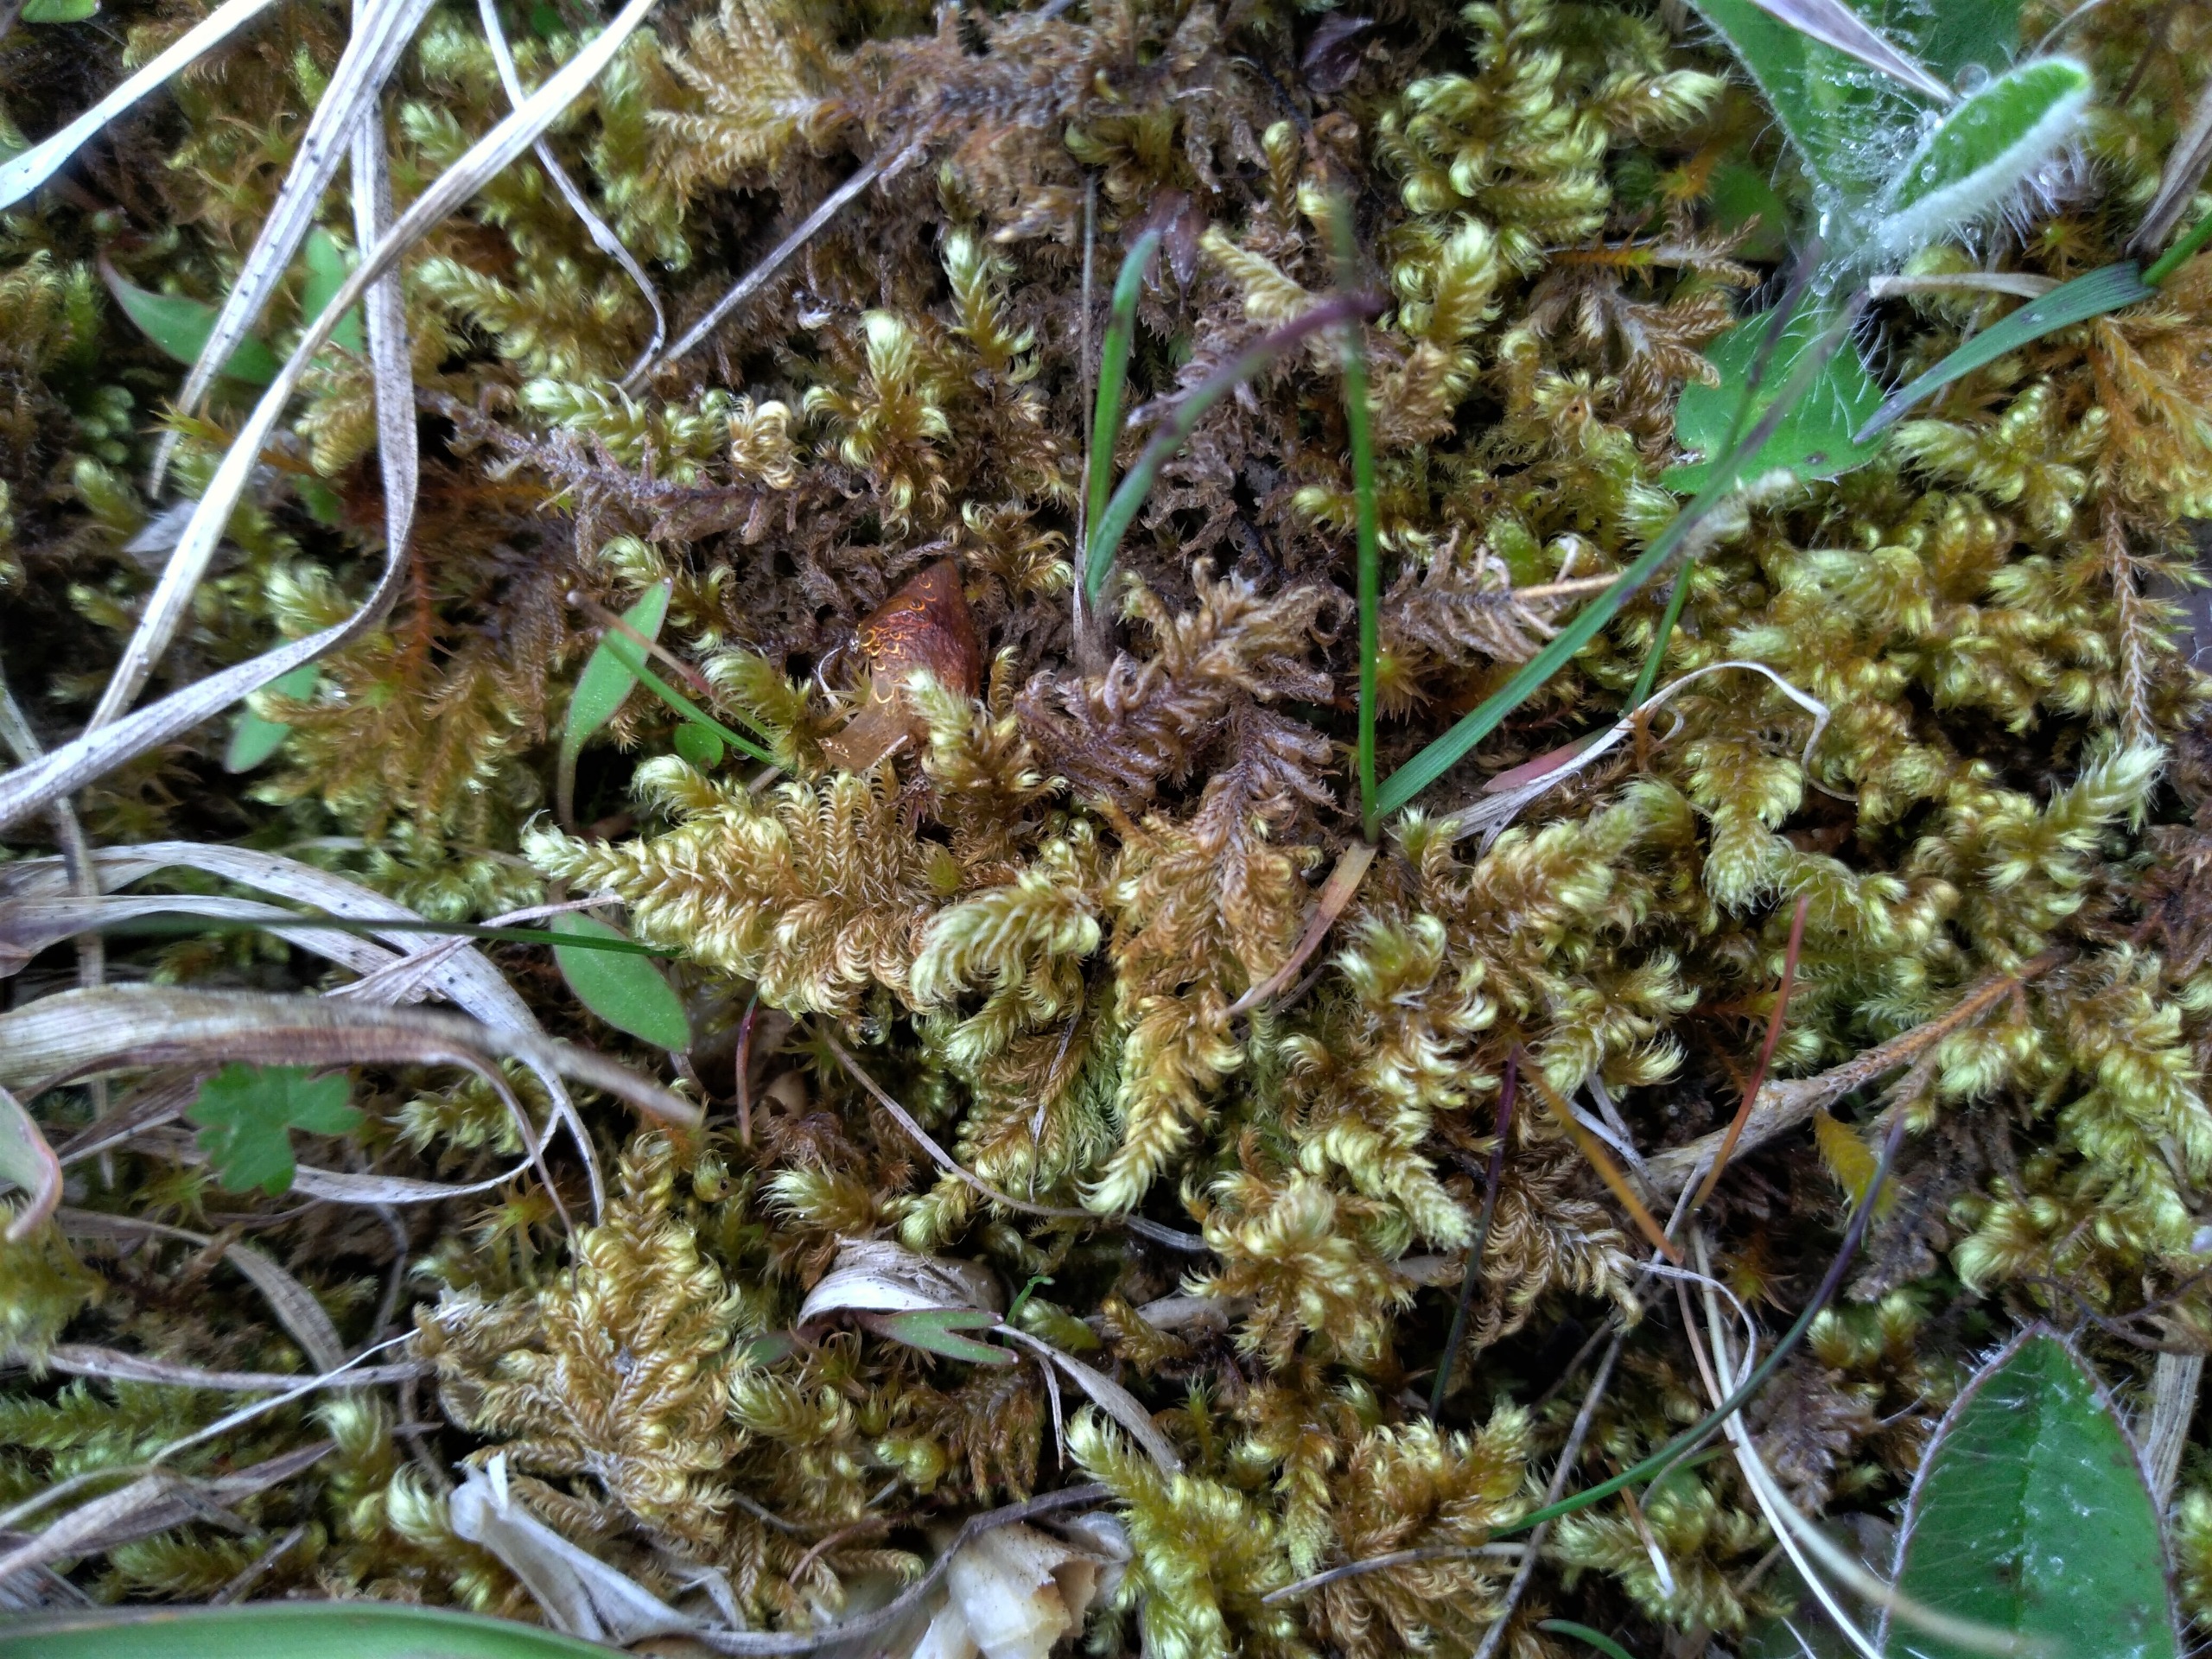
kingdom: Plantae
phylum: Bryophyta
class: Bryopsida
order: Hypnales
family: Myuriaceae
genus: Ctenidium
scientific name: Ctenidium molluscum
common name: Kalk-blødmos
